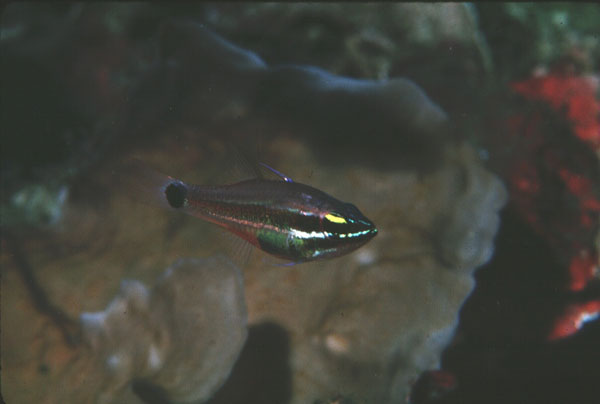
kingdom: Animalia
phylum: Chordata
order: Perciformes
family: Apogonidae
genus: Ostorhinchus
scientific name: Ostorhinchus selas
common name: Meteor cardinalfish
